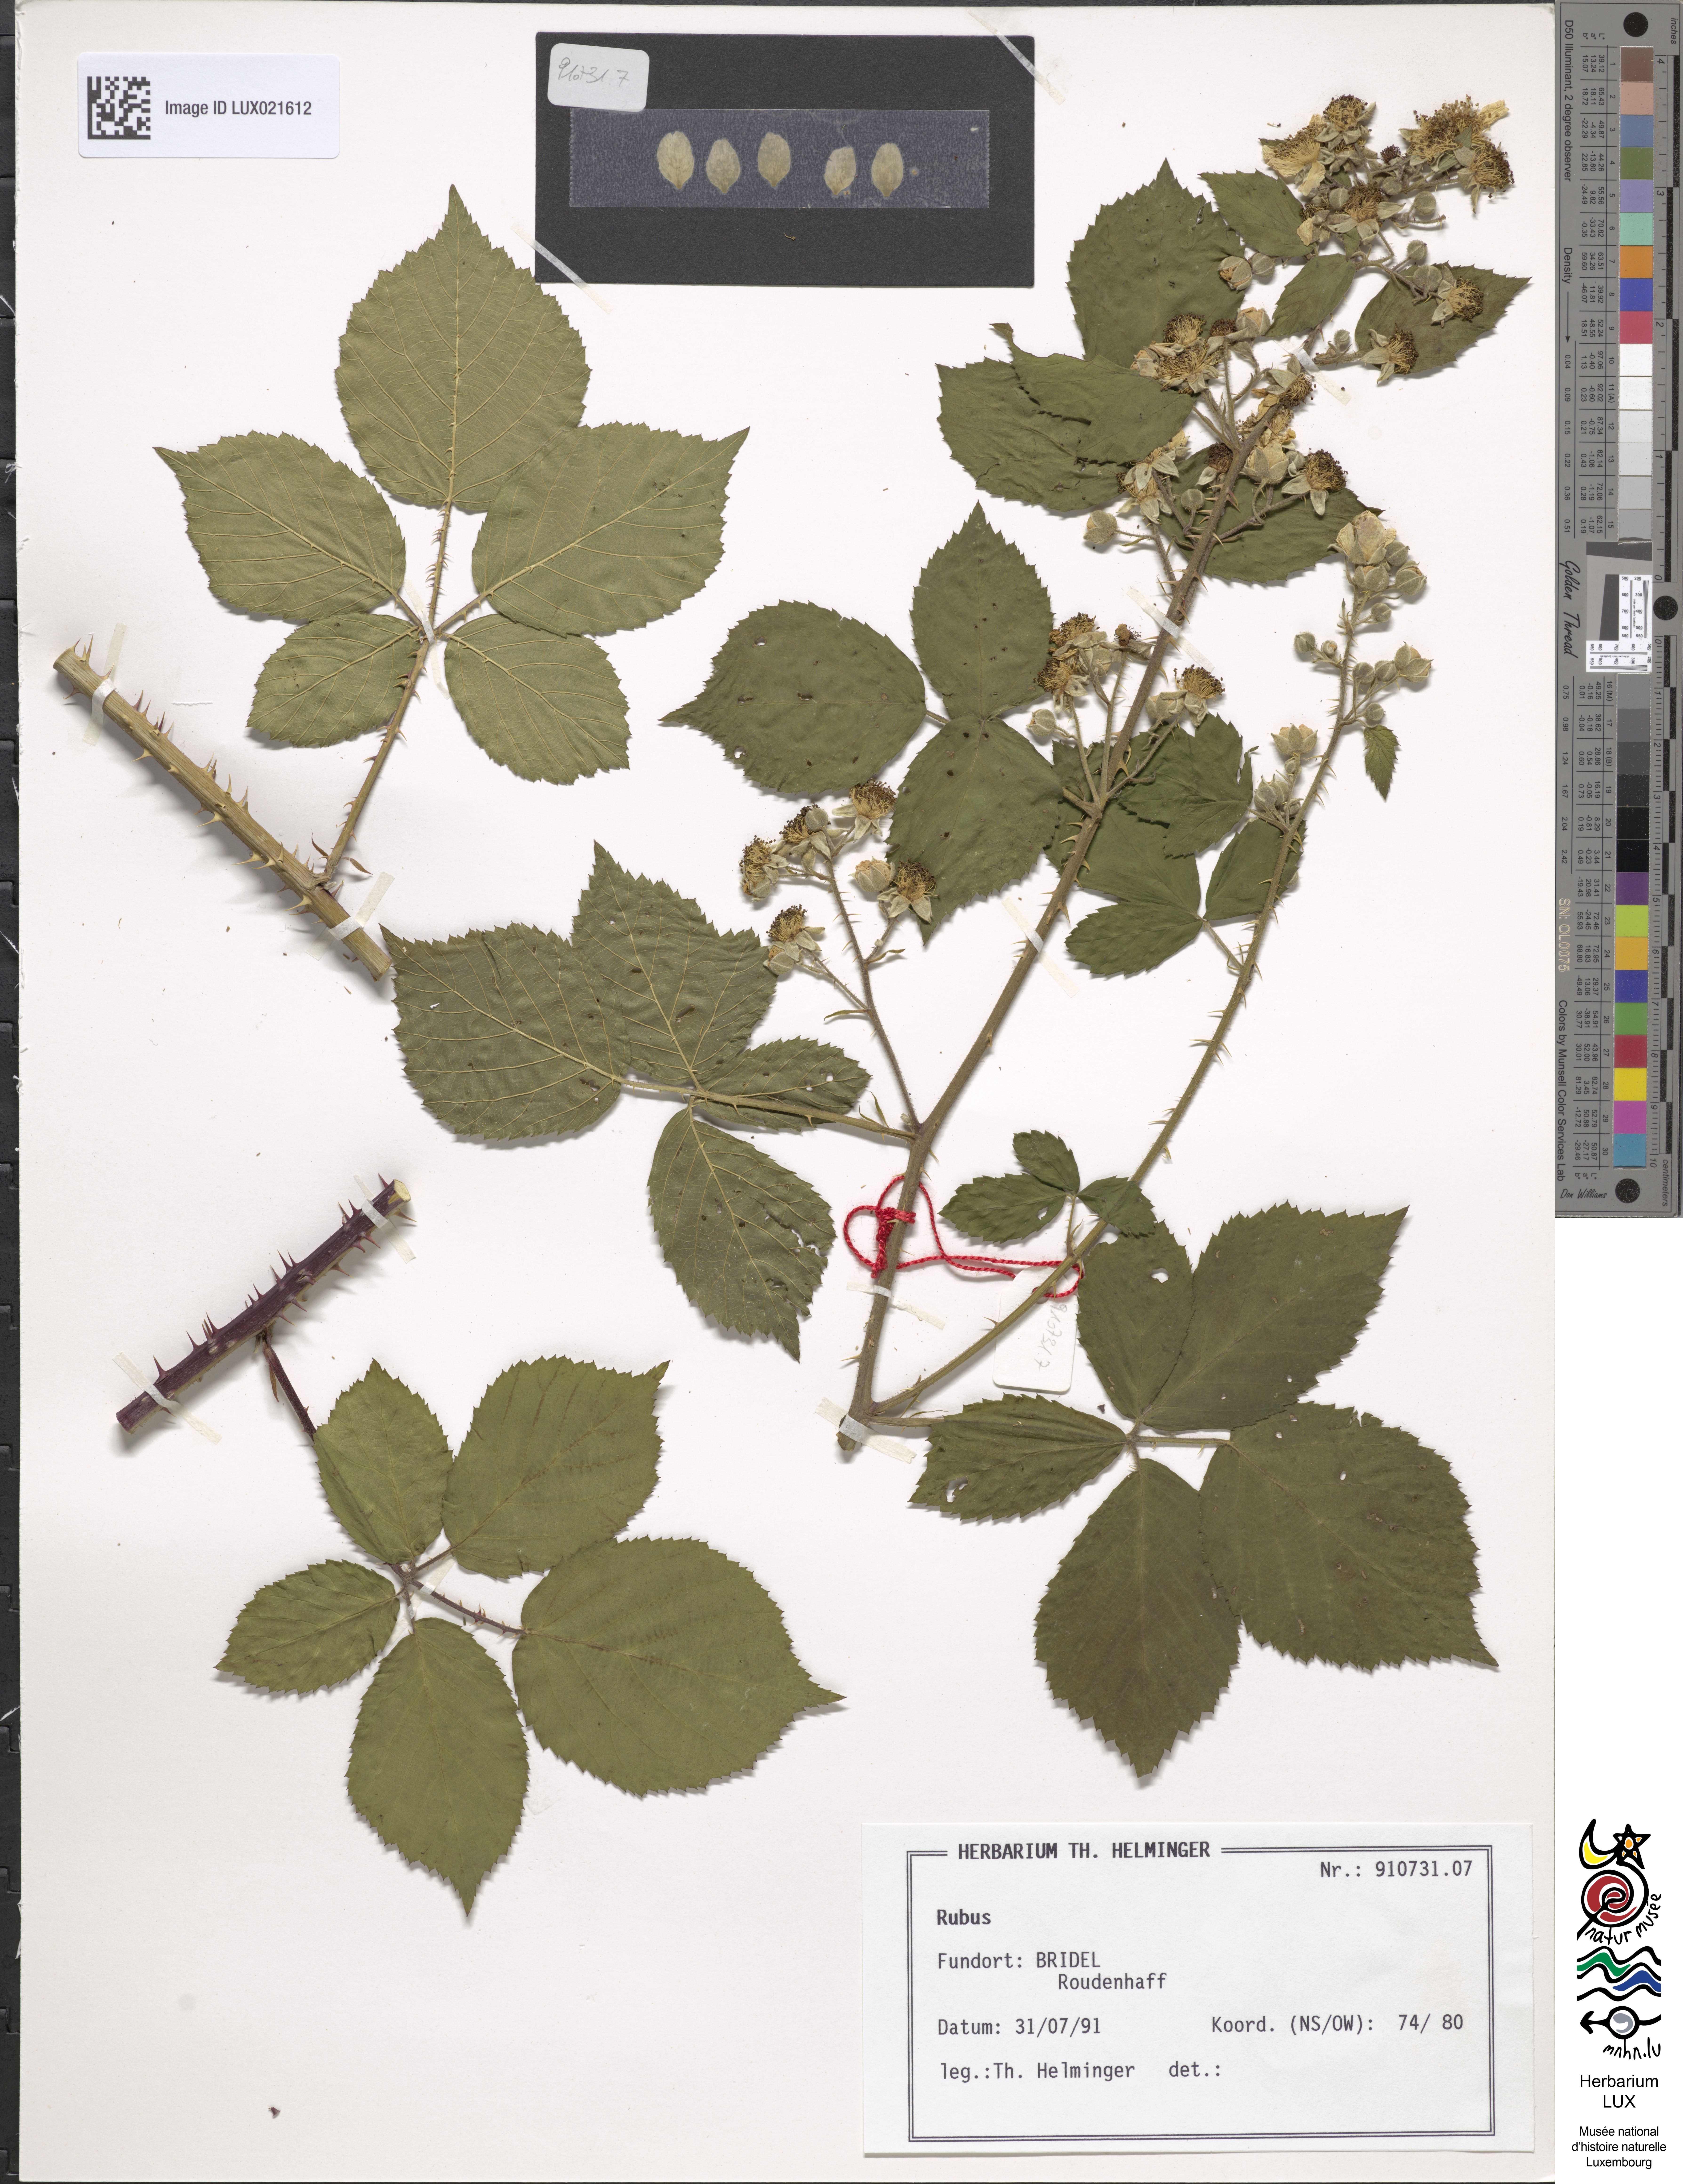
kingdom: Plantae
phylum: Tracheophyta
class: Magnoliopsida
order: Rosales
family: Rosaceae
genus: Rubus
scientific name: Rubus
